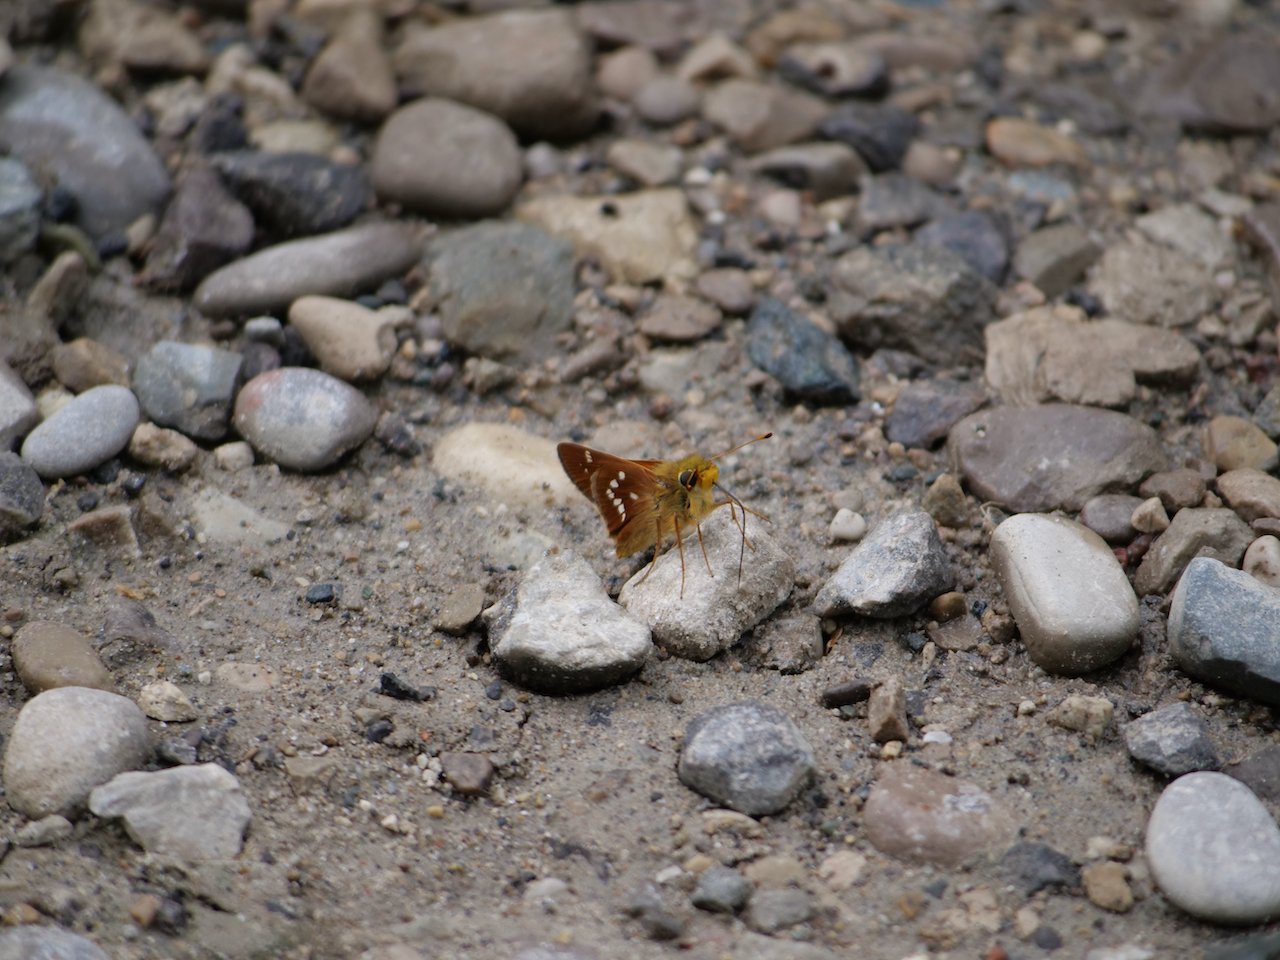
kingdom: Animalia
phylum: Arthropoda
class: Insecta
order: Lepidoptera
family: Hesperiidae
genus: Hesperia
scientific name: Hesperia leonardus
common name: Leonard's Skipper
